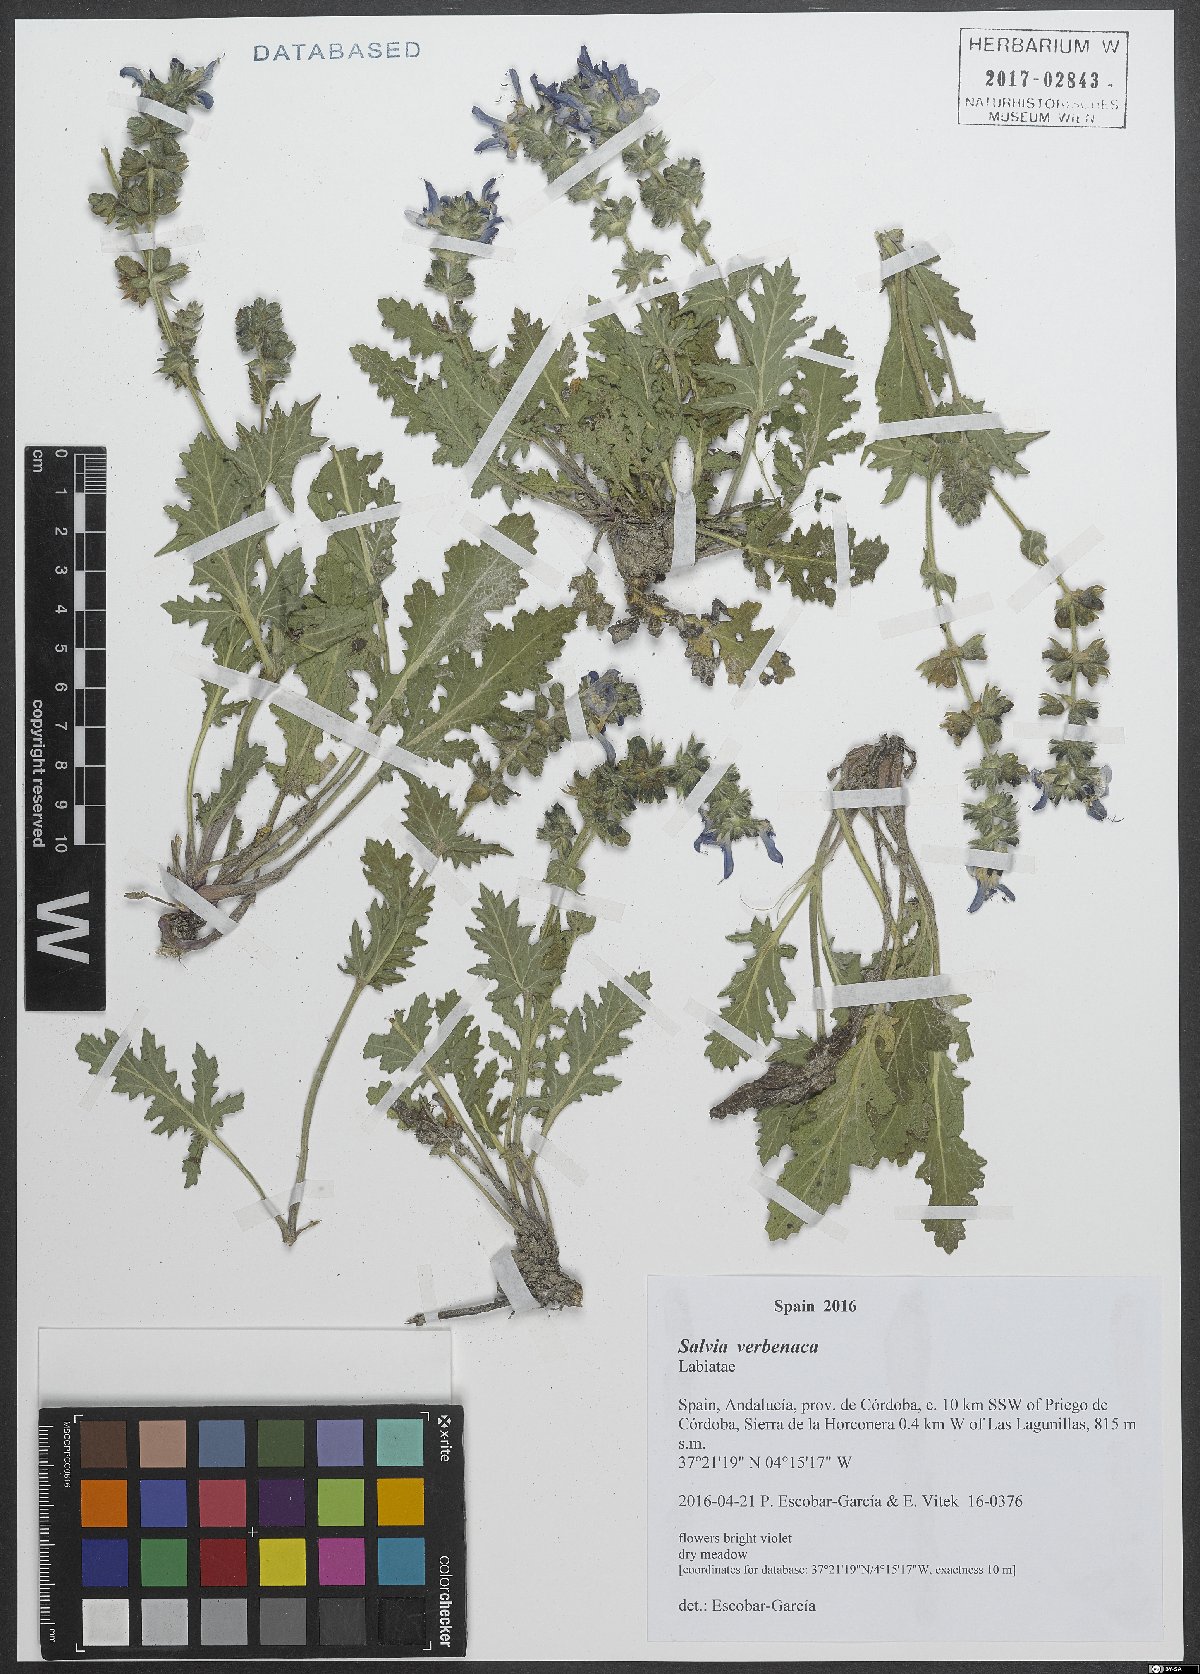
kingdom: Plantae
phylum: Tracheophyta
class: Magnoliopsida
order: Lamiales
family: Lamiaceae
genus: Salvia
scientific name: Salvia verbenaca
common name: Wild clary
